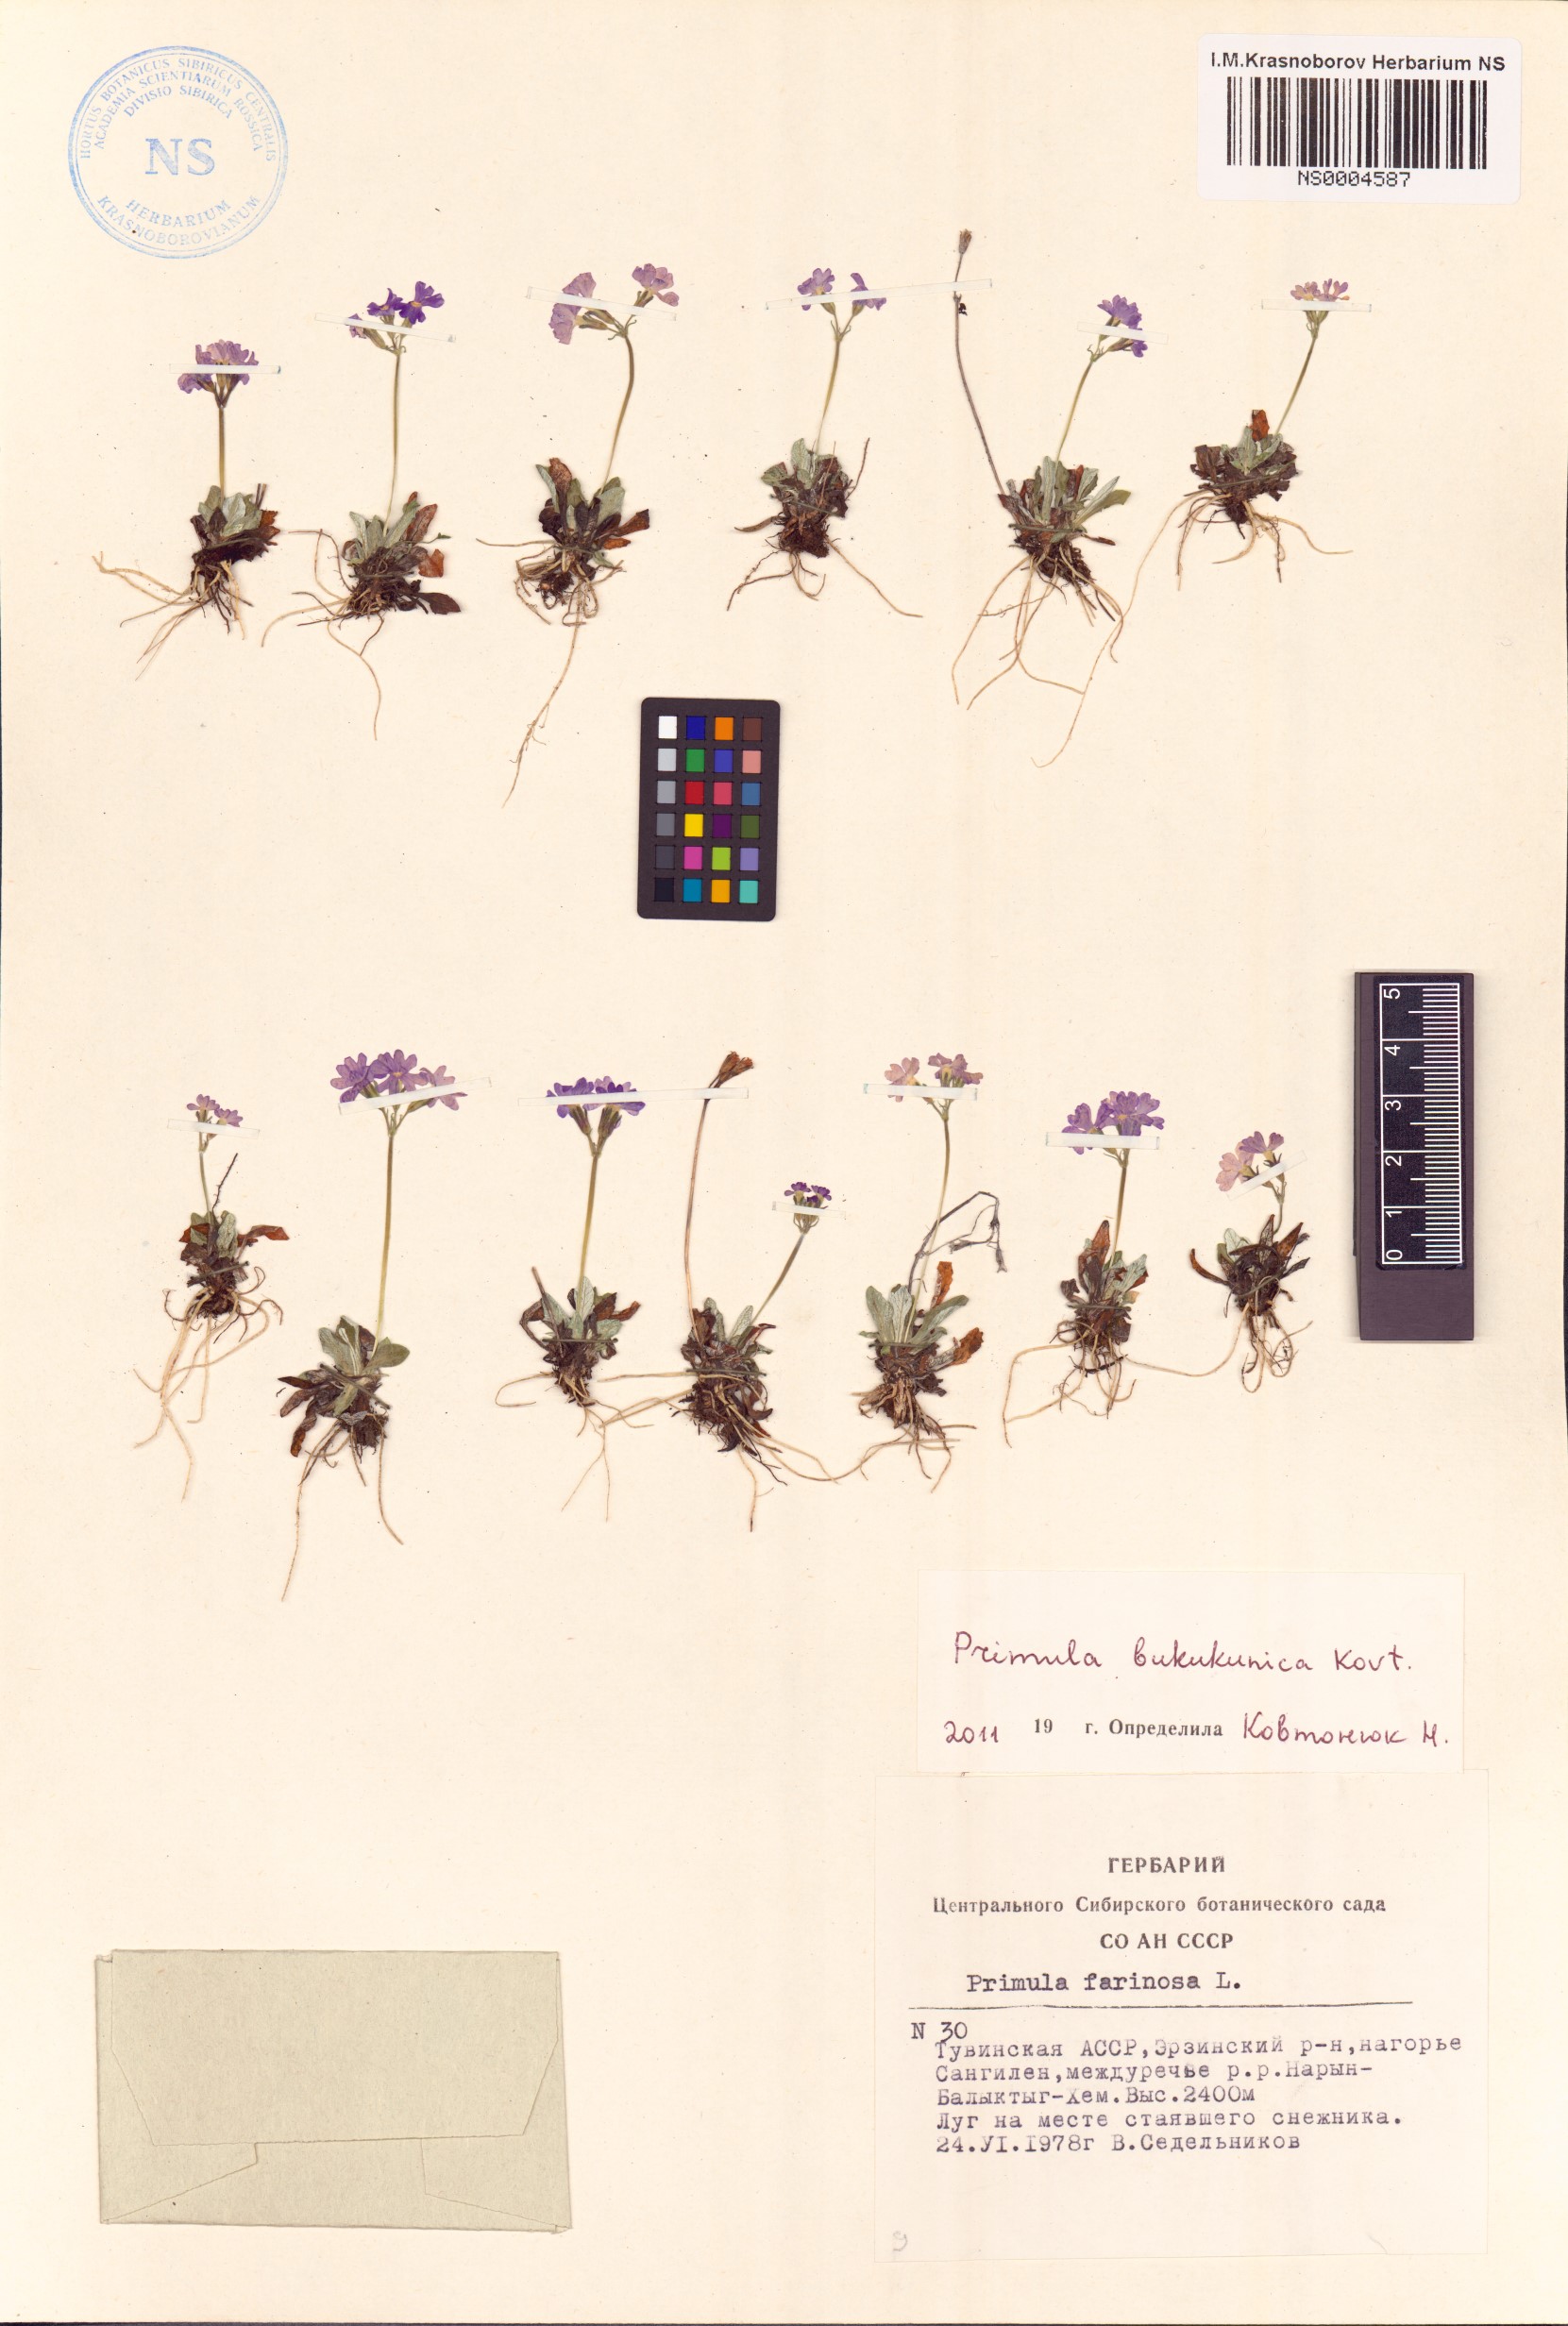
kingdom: Plantae
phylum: Tracheophyta
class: Magnoliopsida
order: Ericales
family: Primulaceae
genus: Primula
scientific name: Primula bukukunica
